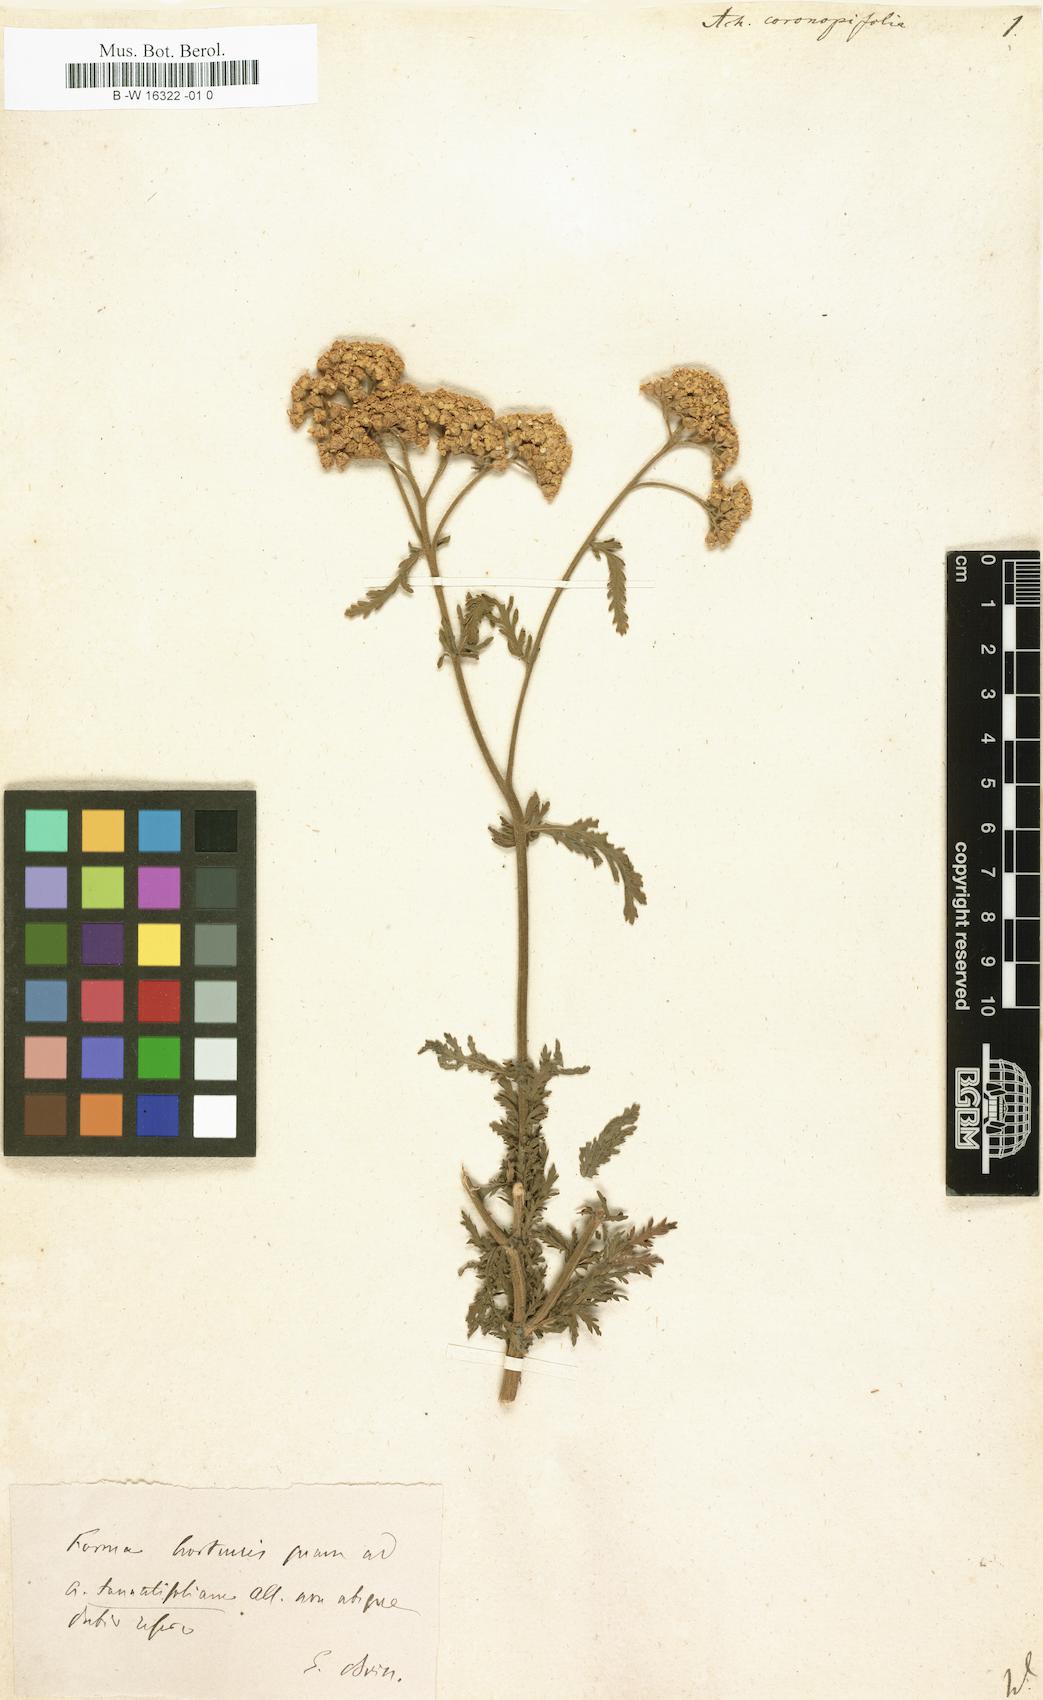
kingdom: Plantae
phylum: Tracheophyta
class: Magnoliopsida
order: Asterales
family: Asteraceae
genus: Achillea
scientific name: Achillea millefolium
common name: Yarrow
